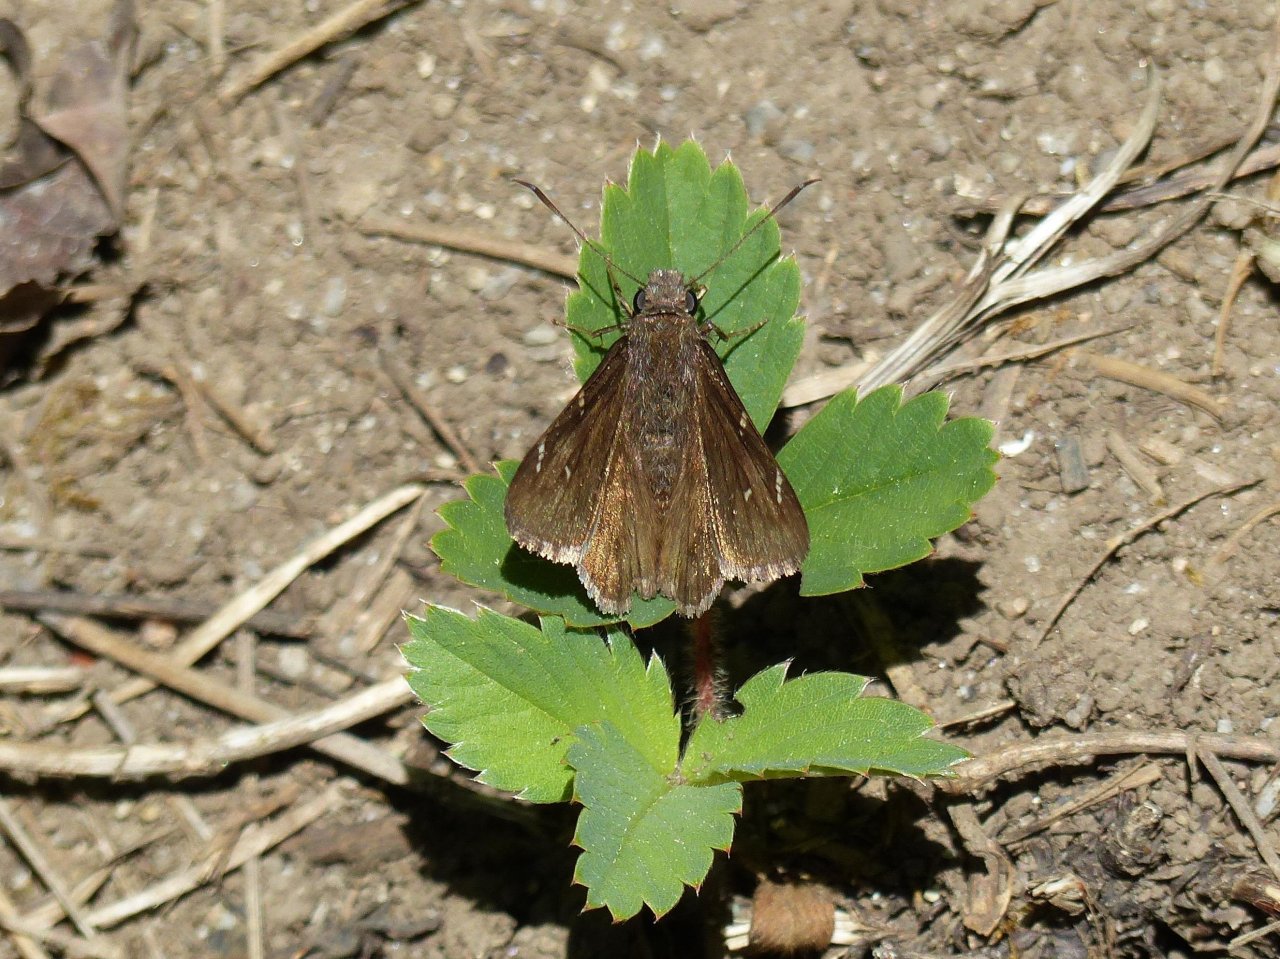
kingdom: Animalia
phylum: Arthropoda
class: Insecta
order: Lepidoptera
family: Hesperiidae
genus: Autochton
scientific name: Autochton
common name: Northern Cloudywing
